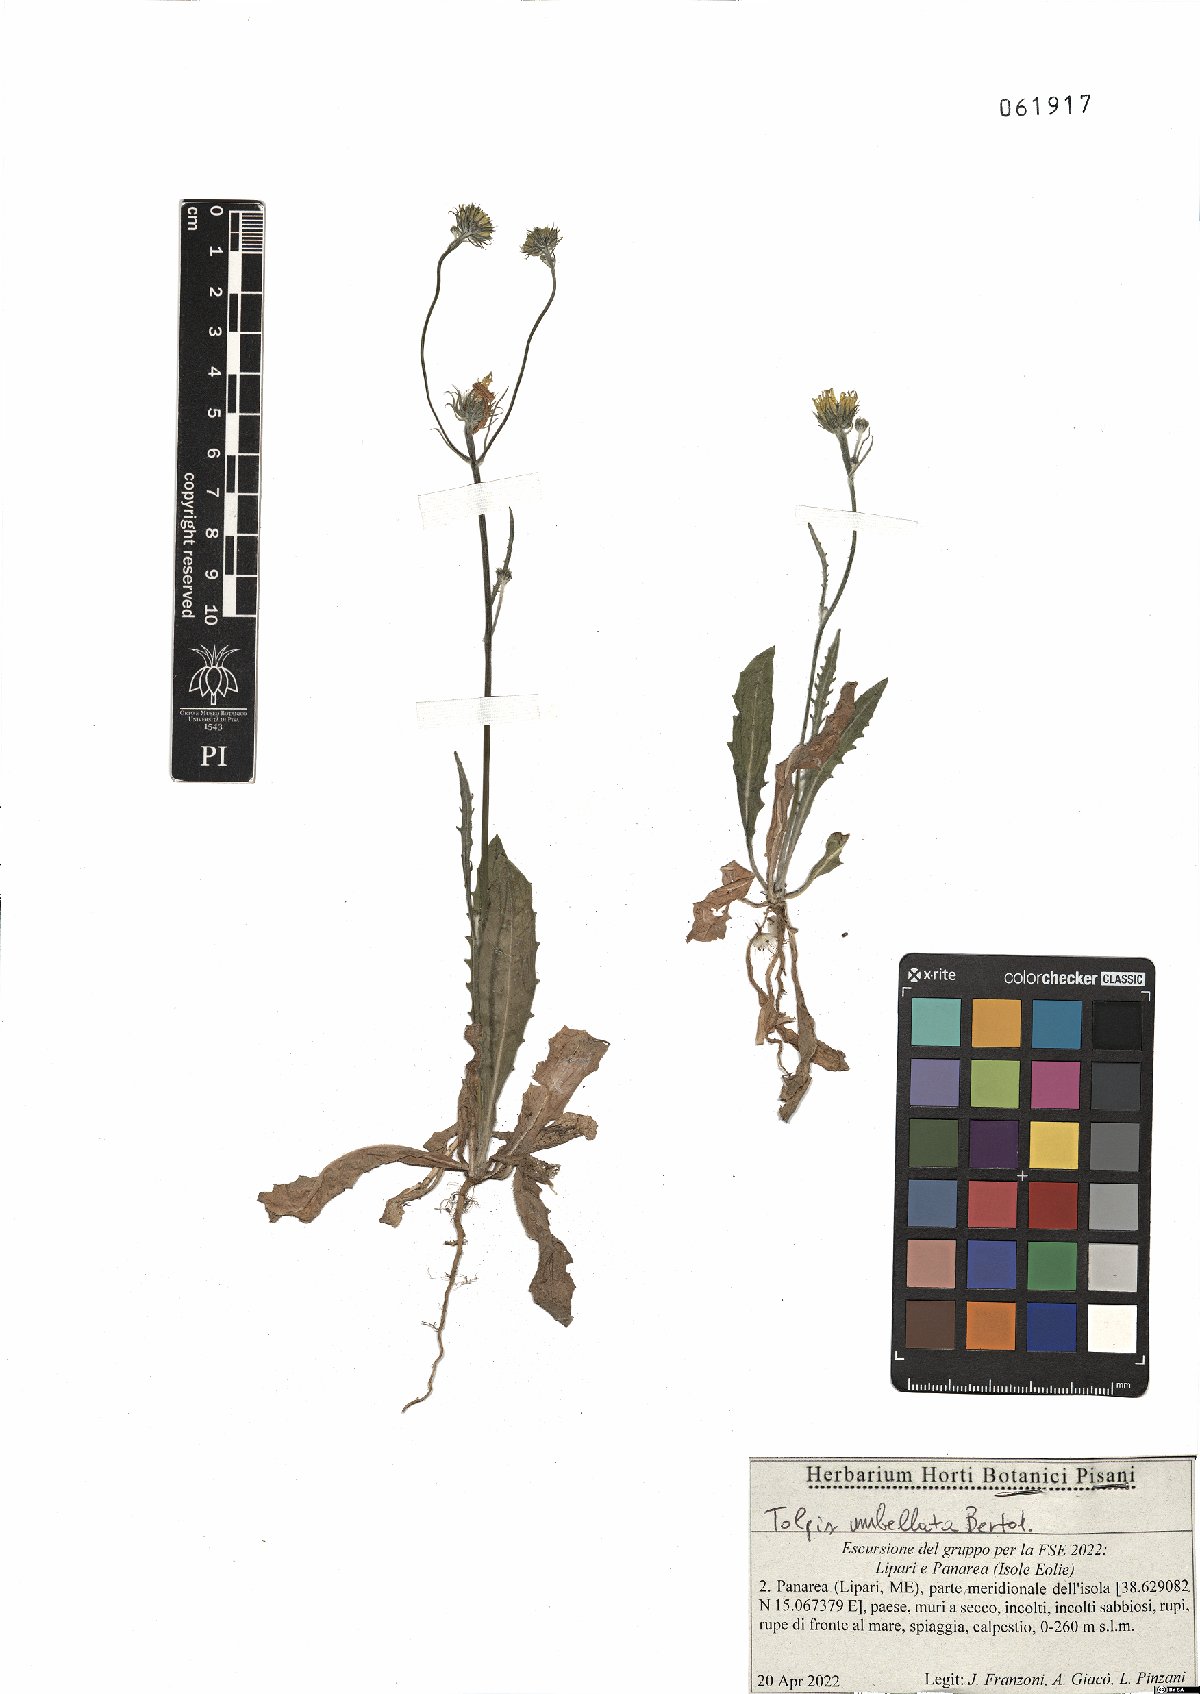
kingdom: Plantae
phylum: Tracheophyta
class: Magnoliopsida
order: Asterales
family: Asteraceae
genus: Tolpis
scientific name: Tolpis umbellata
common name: Yellow hawkweed
